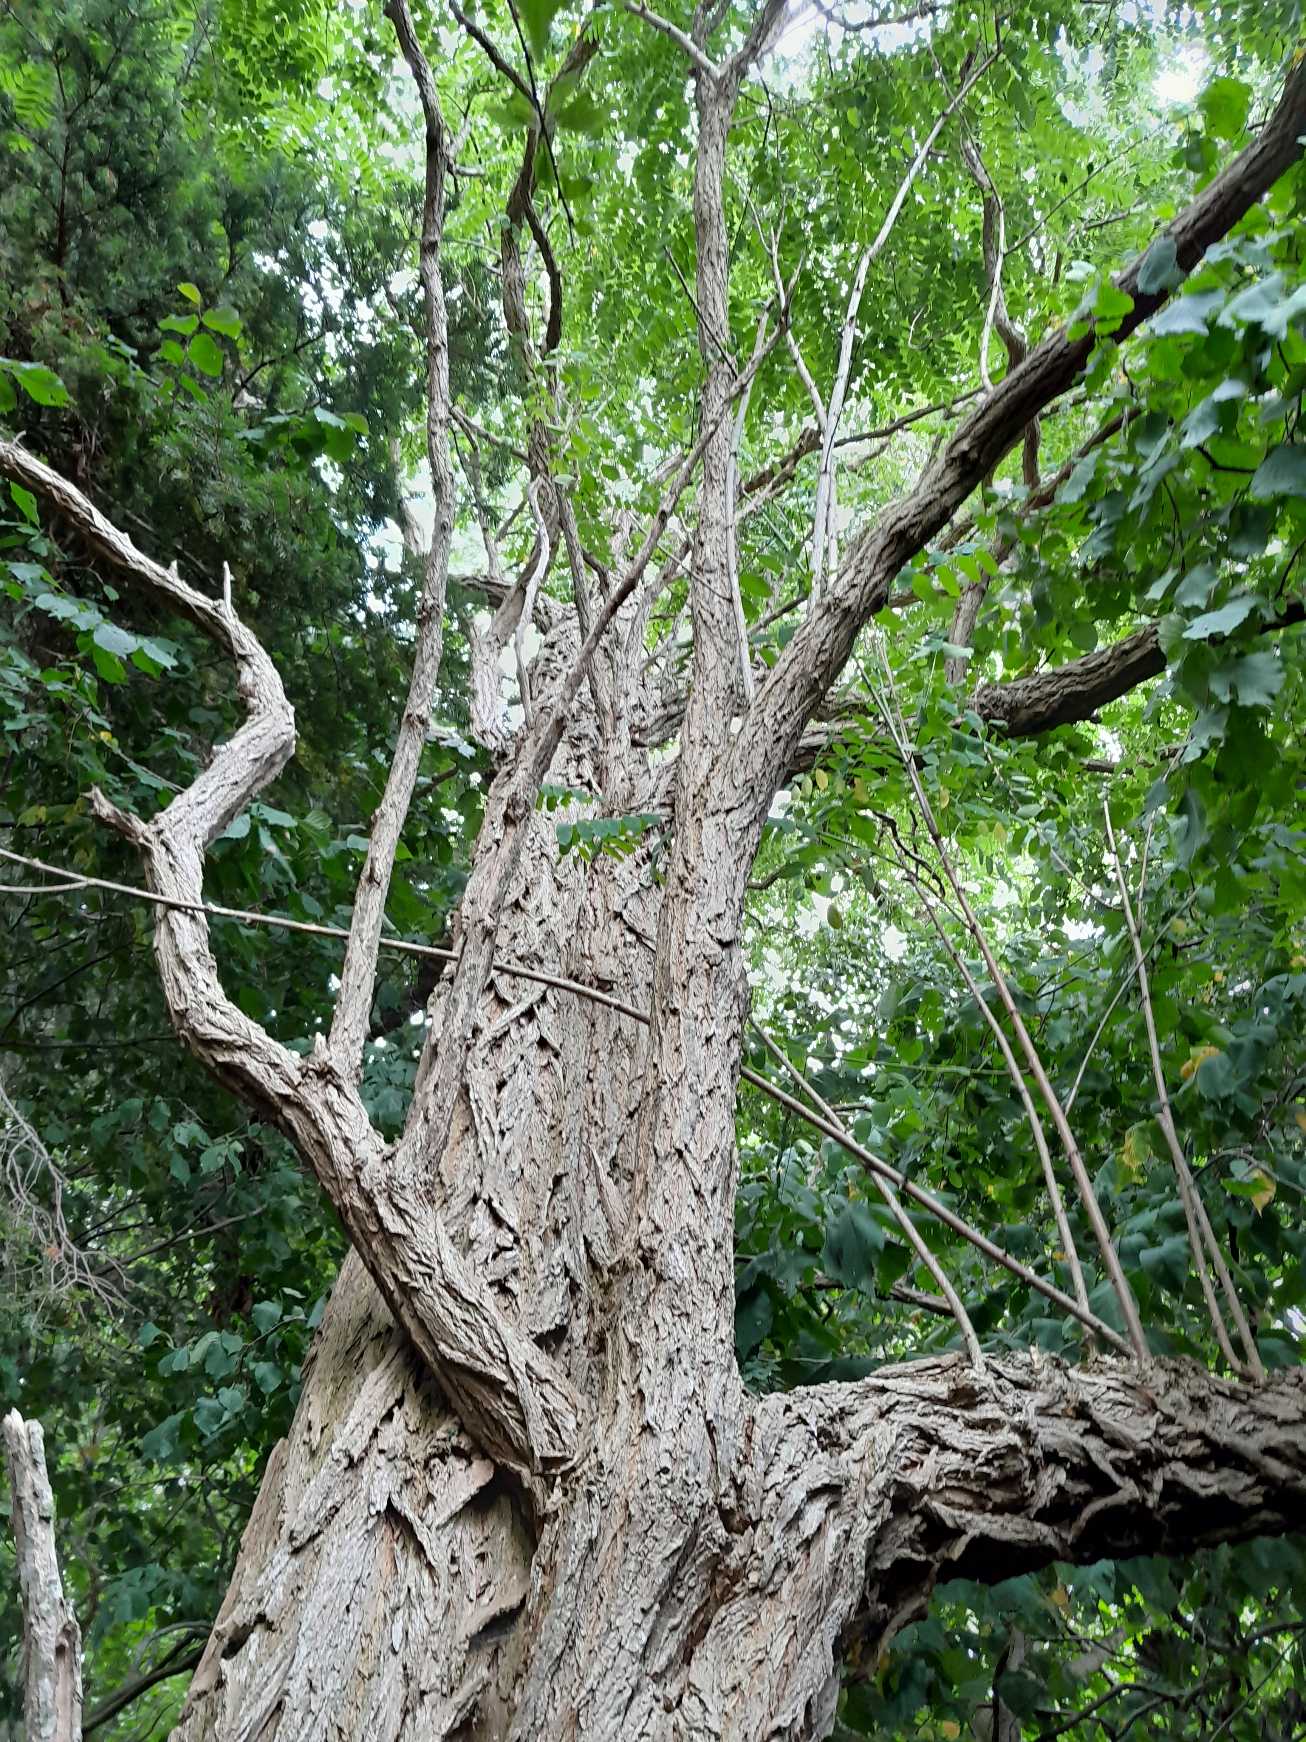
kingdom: Plantae
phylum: Tracheophyta
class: Magnoliopsida
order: Fabales
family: Fabaceae
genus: Robinia
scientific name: Robinia pseudoacacia
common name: Robinie
